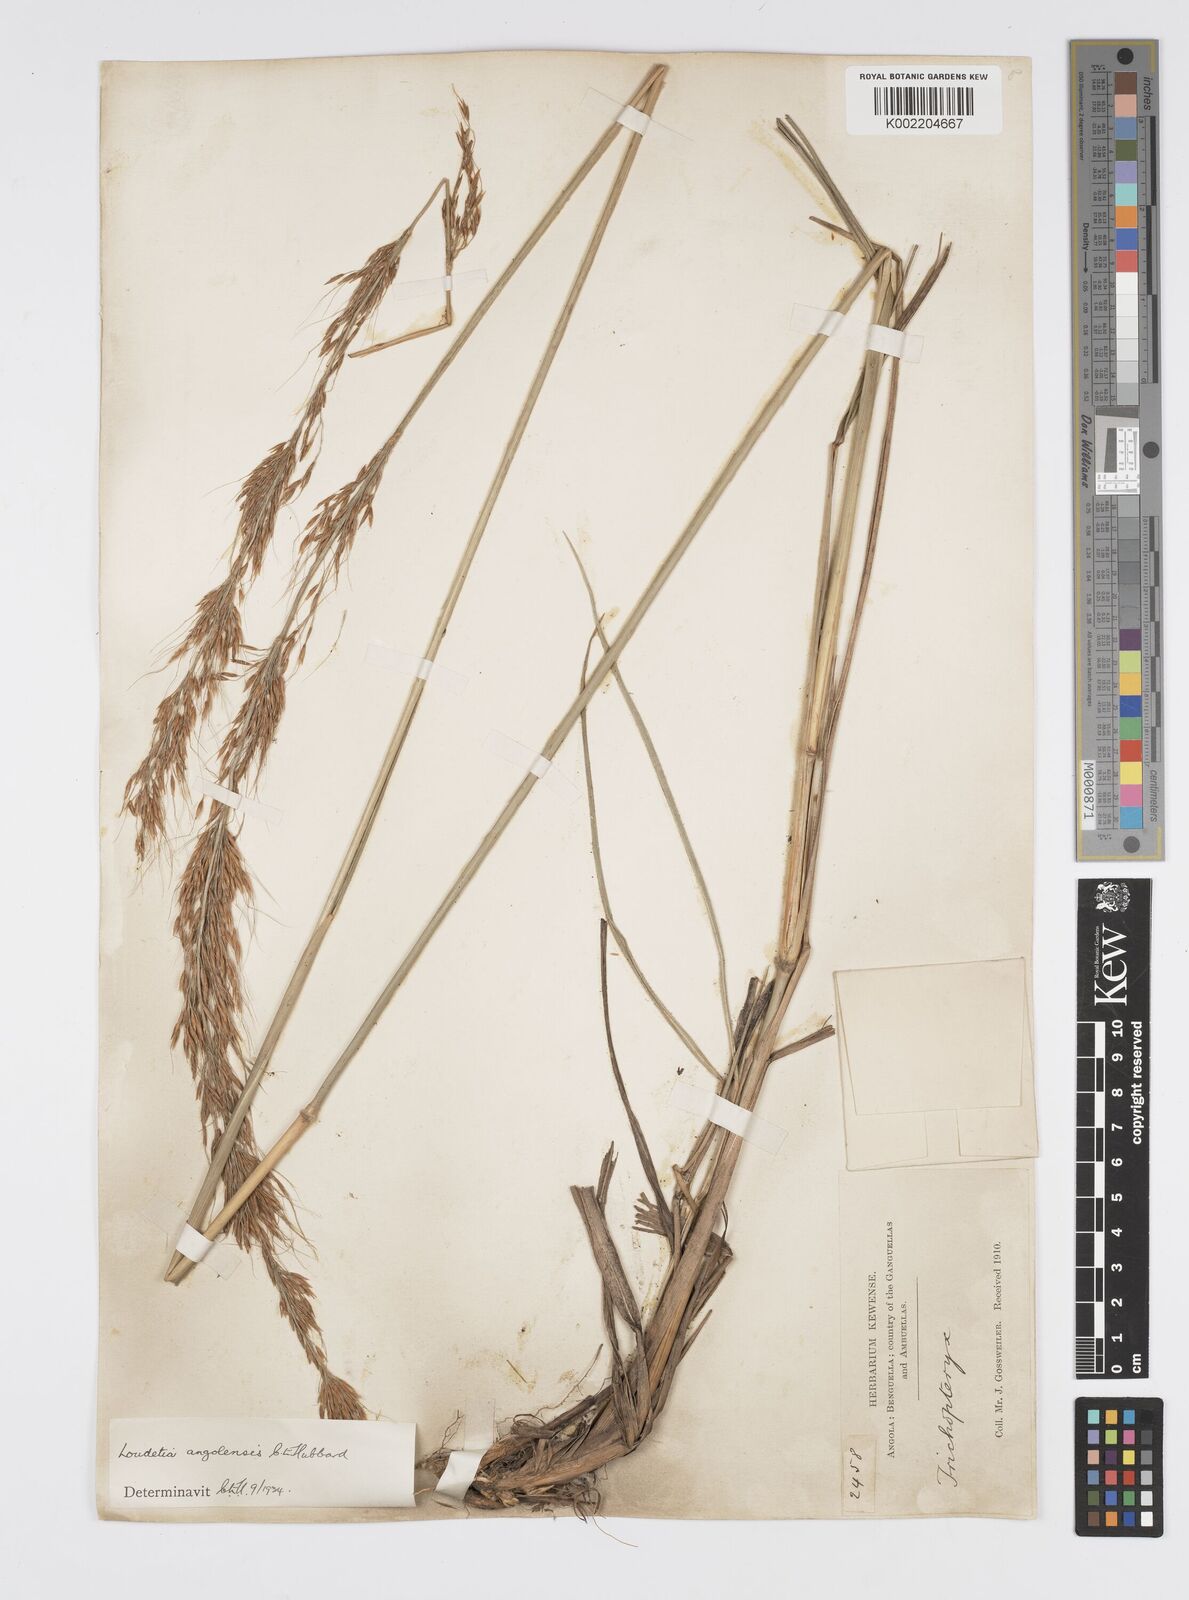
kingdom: Plantae
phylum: Tracheophyta
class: Liliopsida
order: Poales
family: Poaceae
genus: Loudetia
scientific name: Loudetia angolensis
